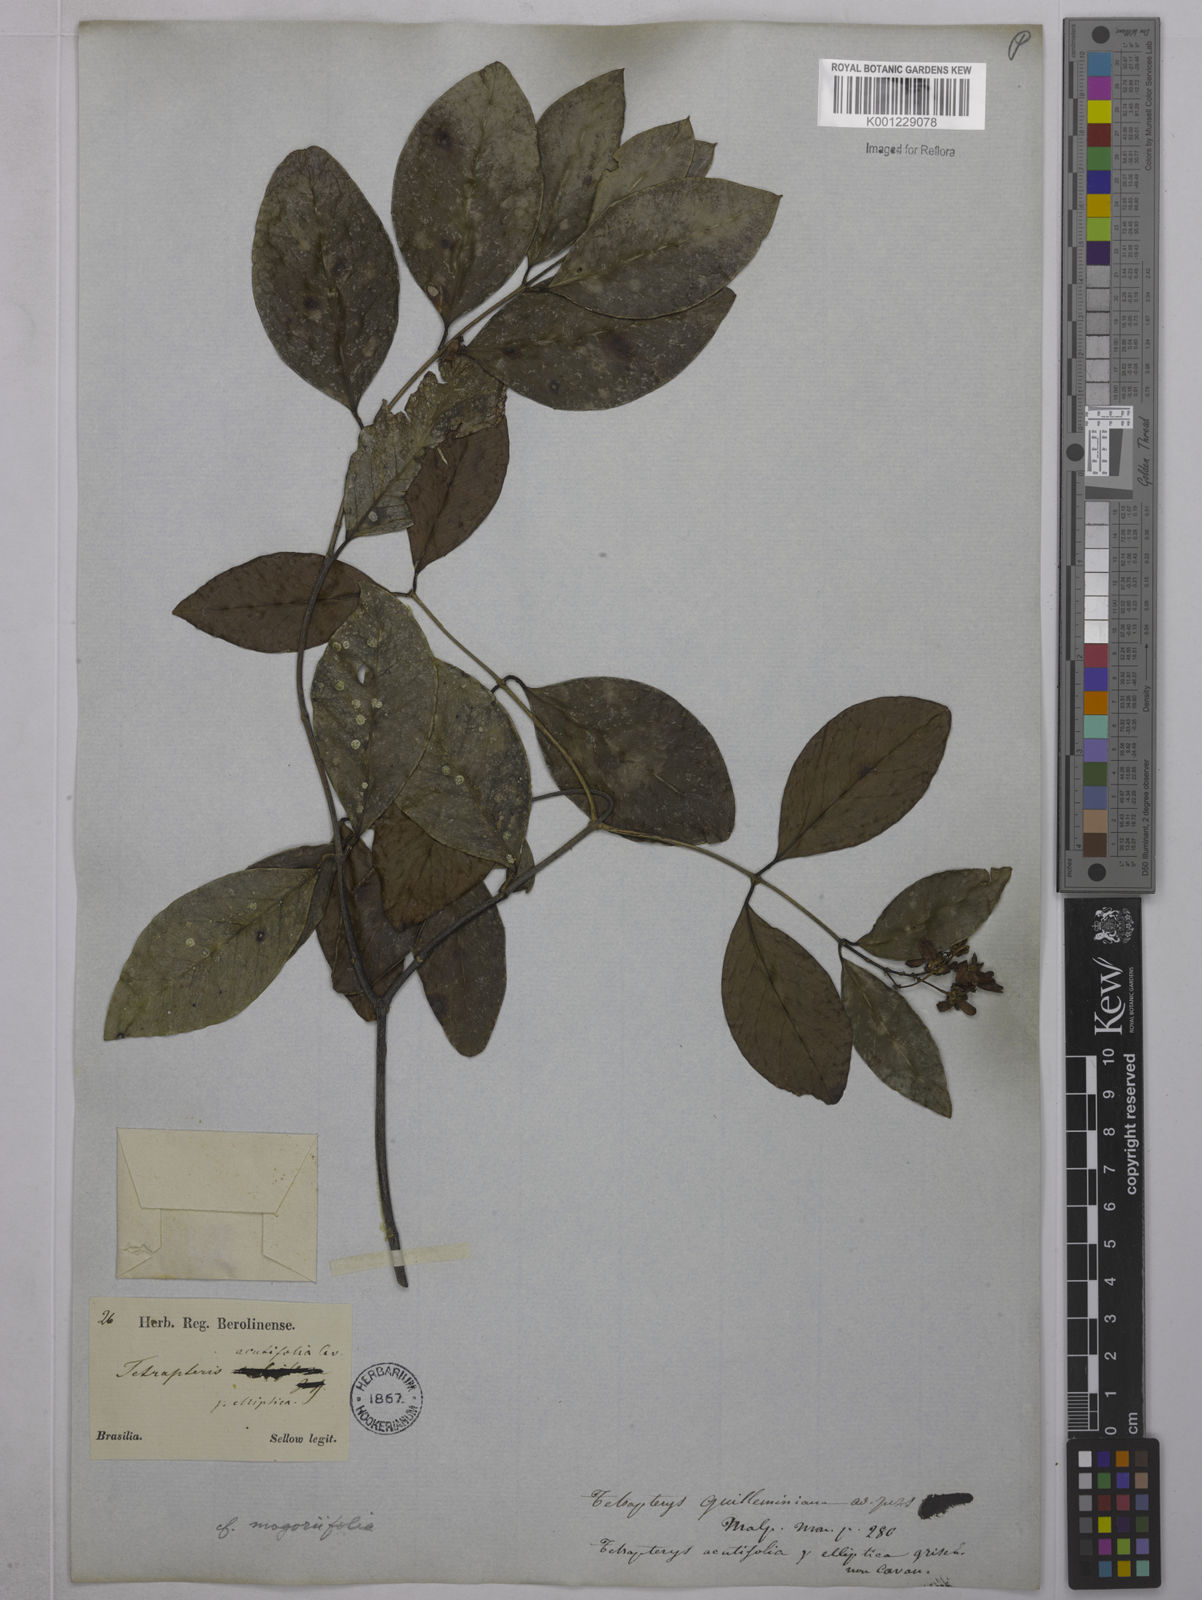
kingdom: Plantae
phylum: Tracheophyta
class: Magnoliopsida
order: Malpighiales
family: Malpighiaceae
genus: Niedenzuella
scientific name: Niedenzuella mogoriifolia
